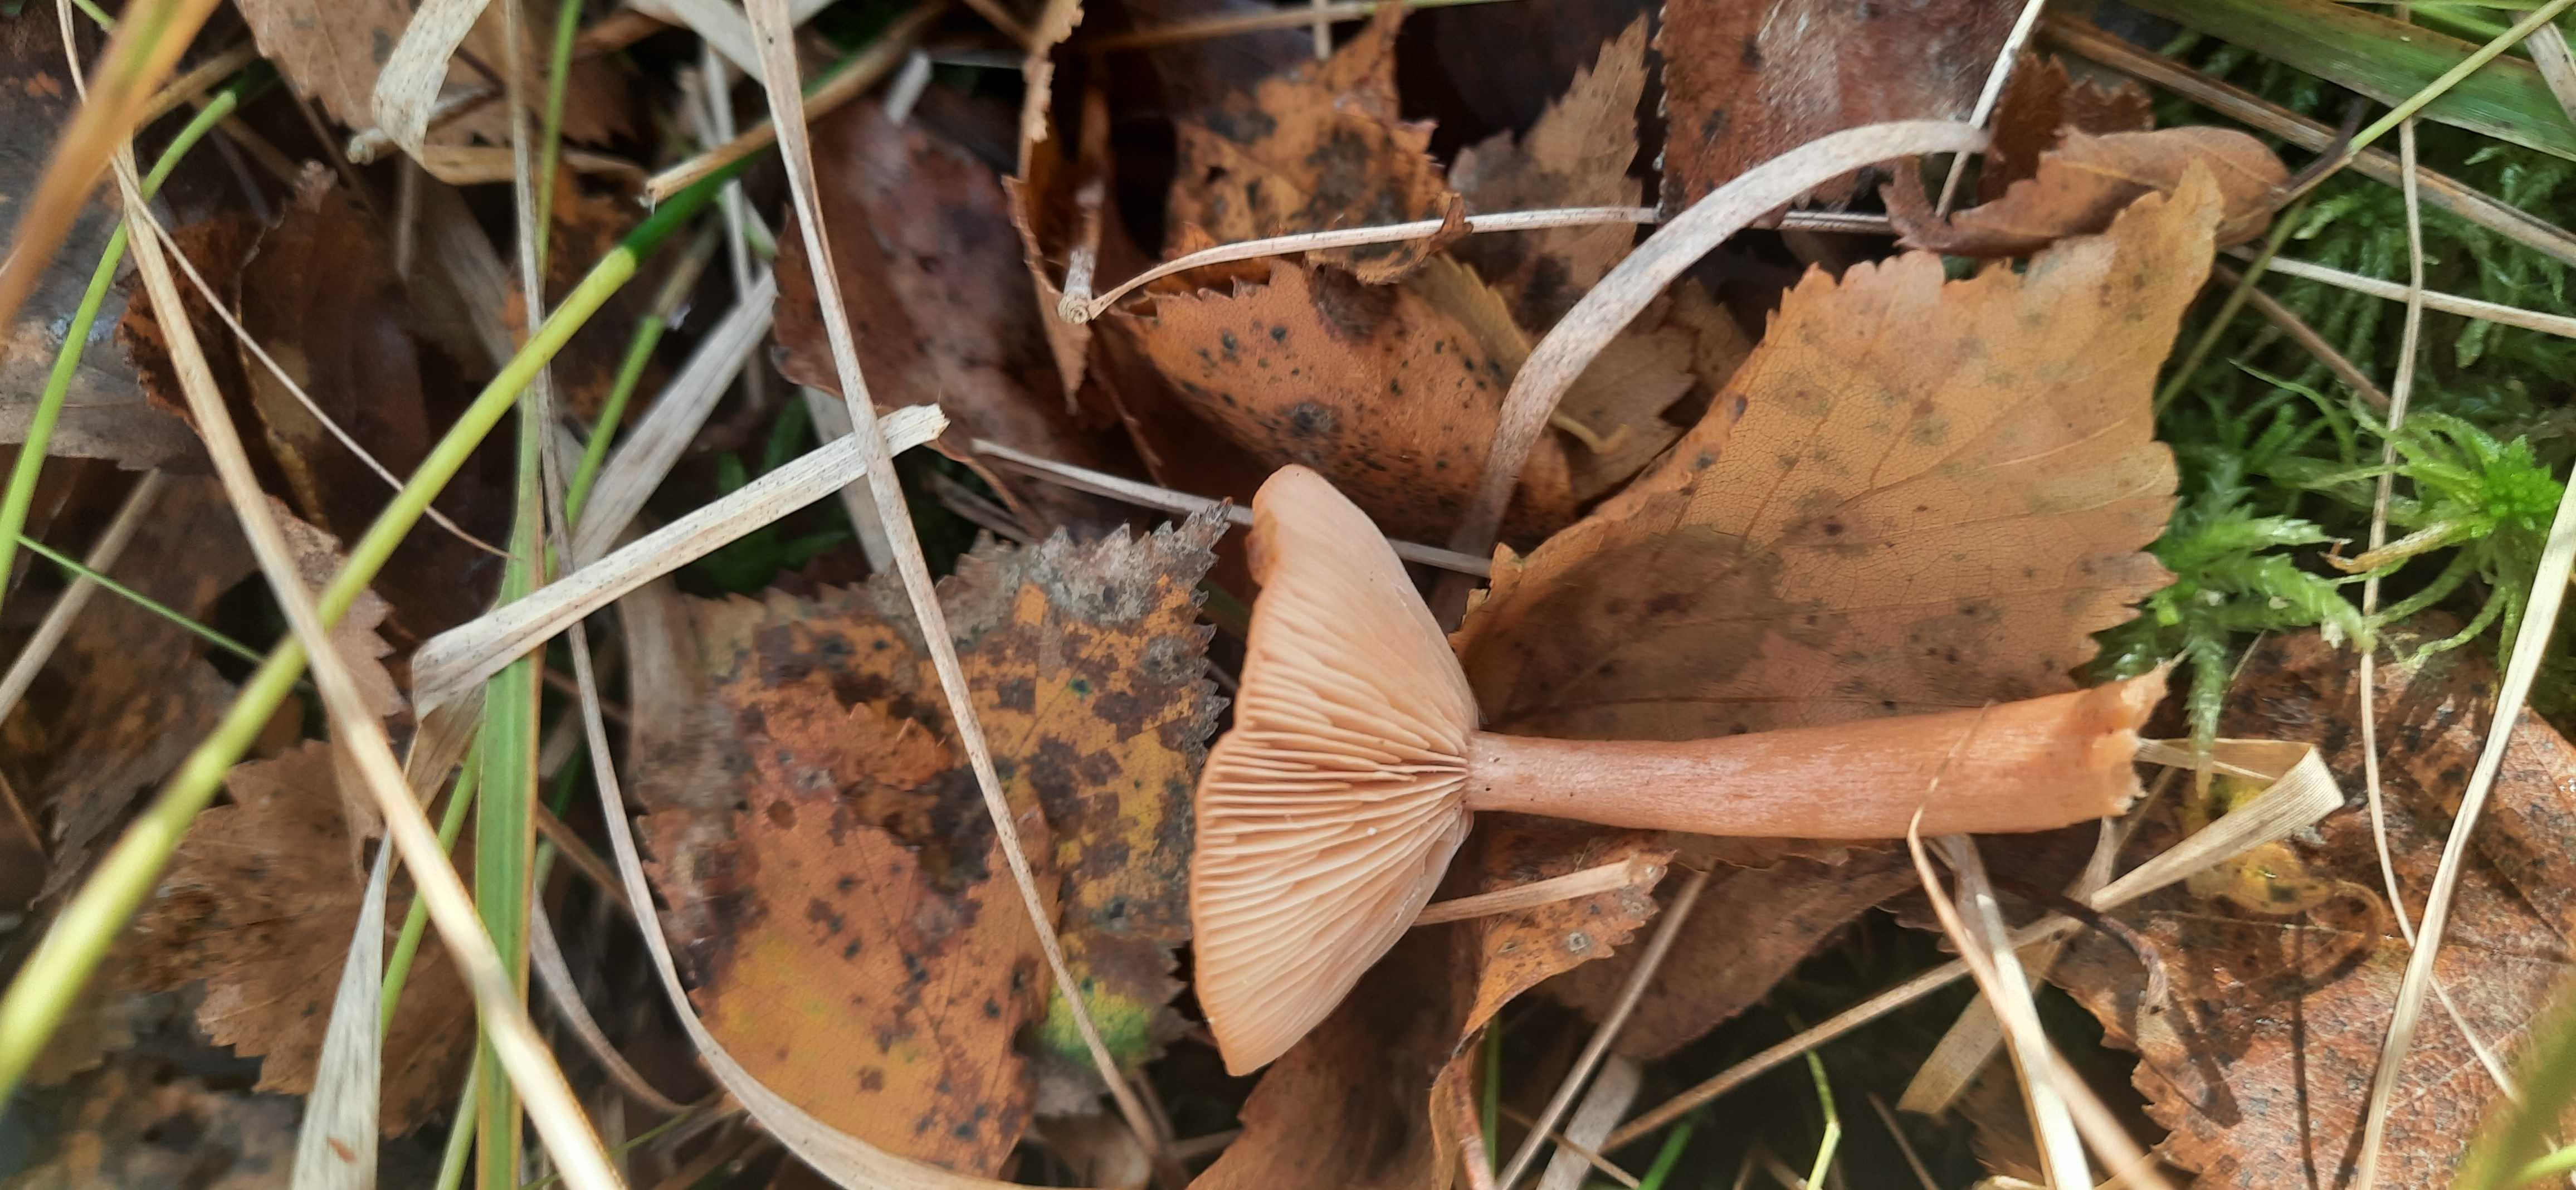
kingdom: Fungi
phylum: Basidiomycota
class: Agaricomycetes
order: Russulales
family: Russulaceae
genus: Lactarius
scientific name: Lactarius tabidus
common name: rynket mælkehat
